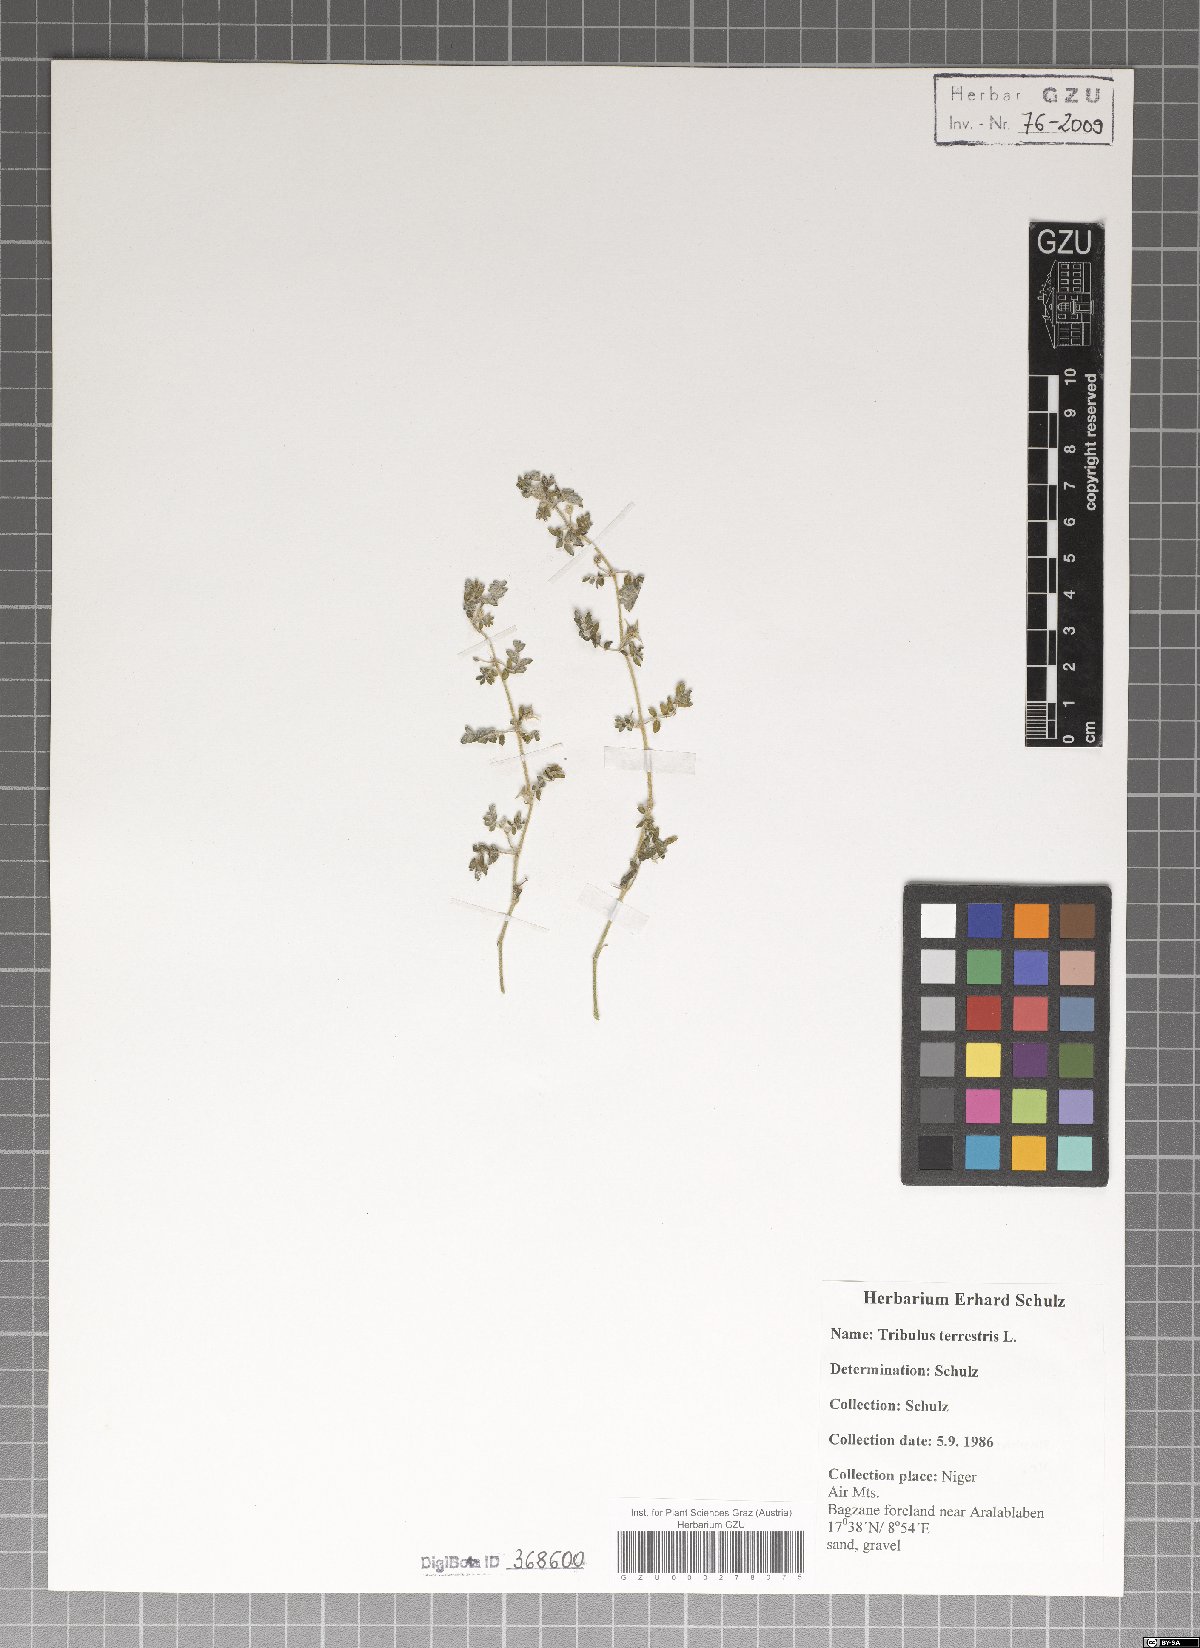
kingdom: Plantae
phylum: Tracheophyta
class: Magnoliopsida
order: Zygophyllales
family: Zygophyllaceae
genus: Tribulus
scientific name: Tribulus terrestris
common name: Puncturevine
